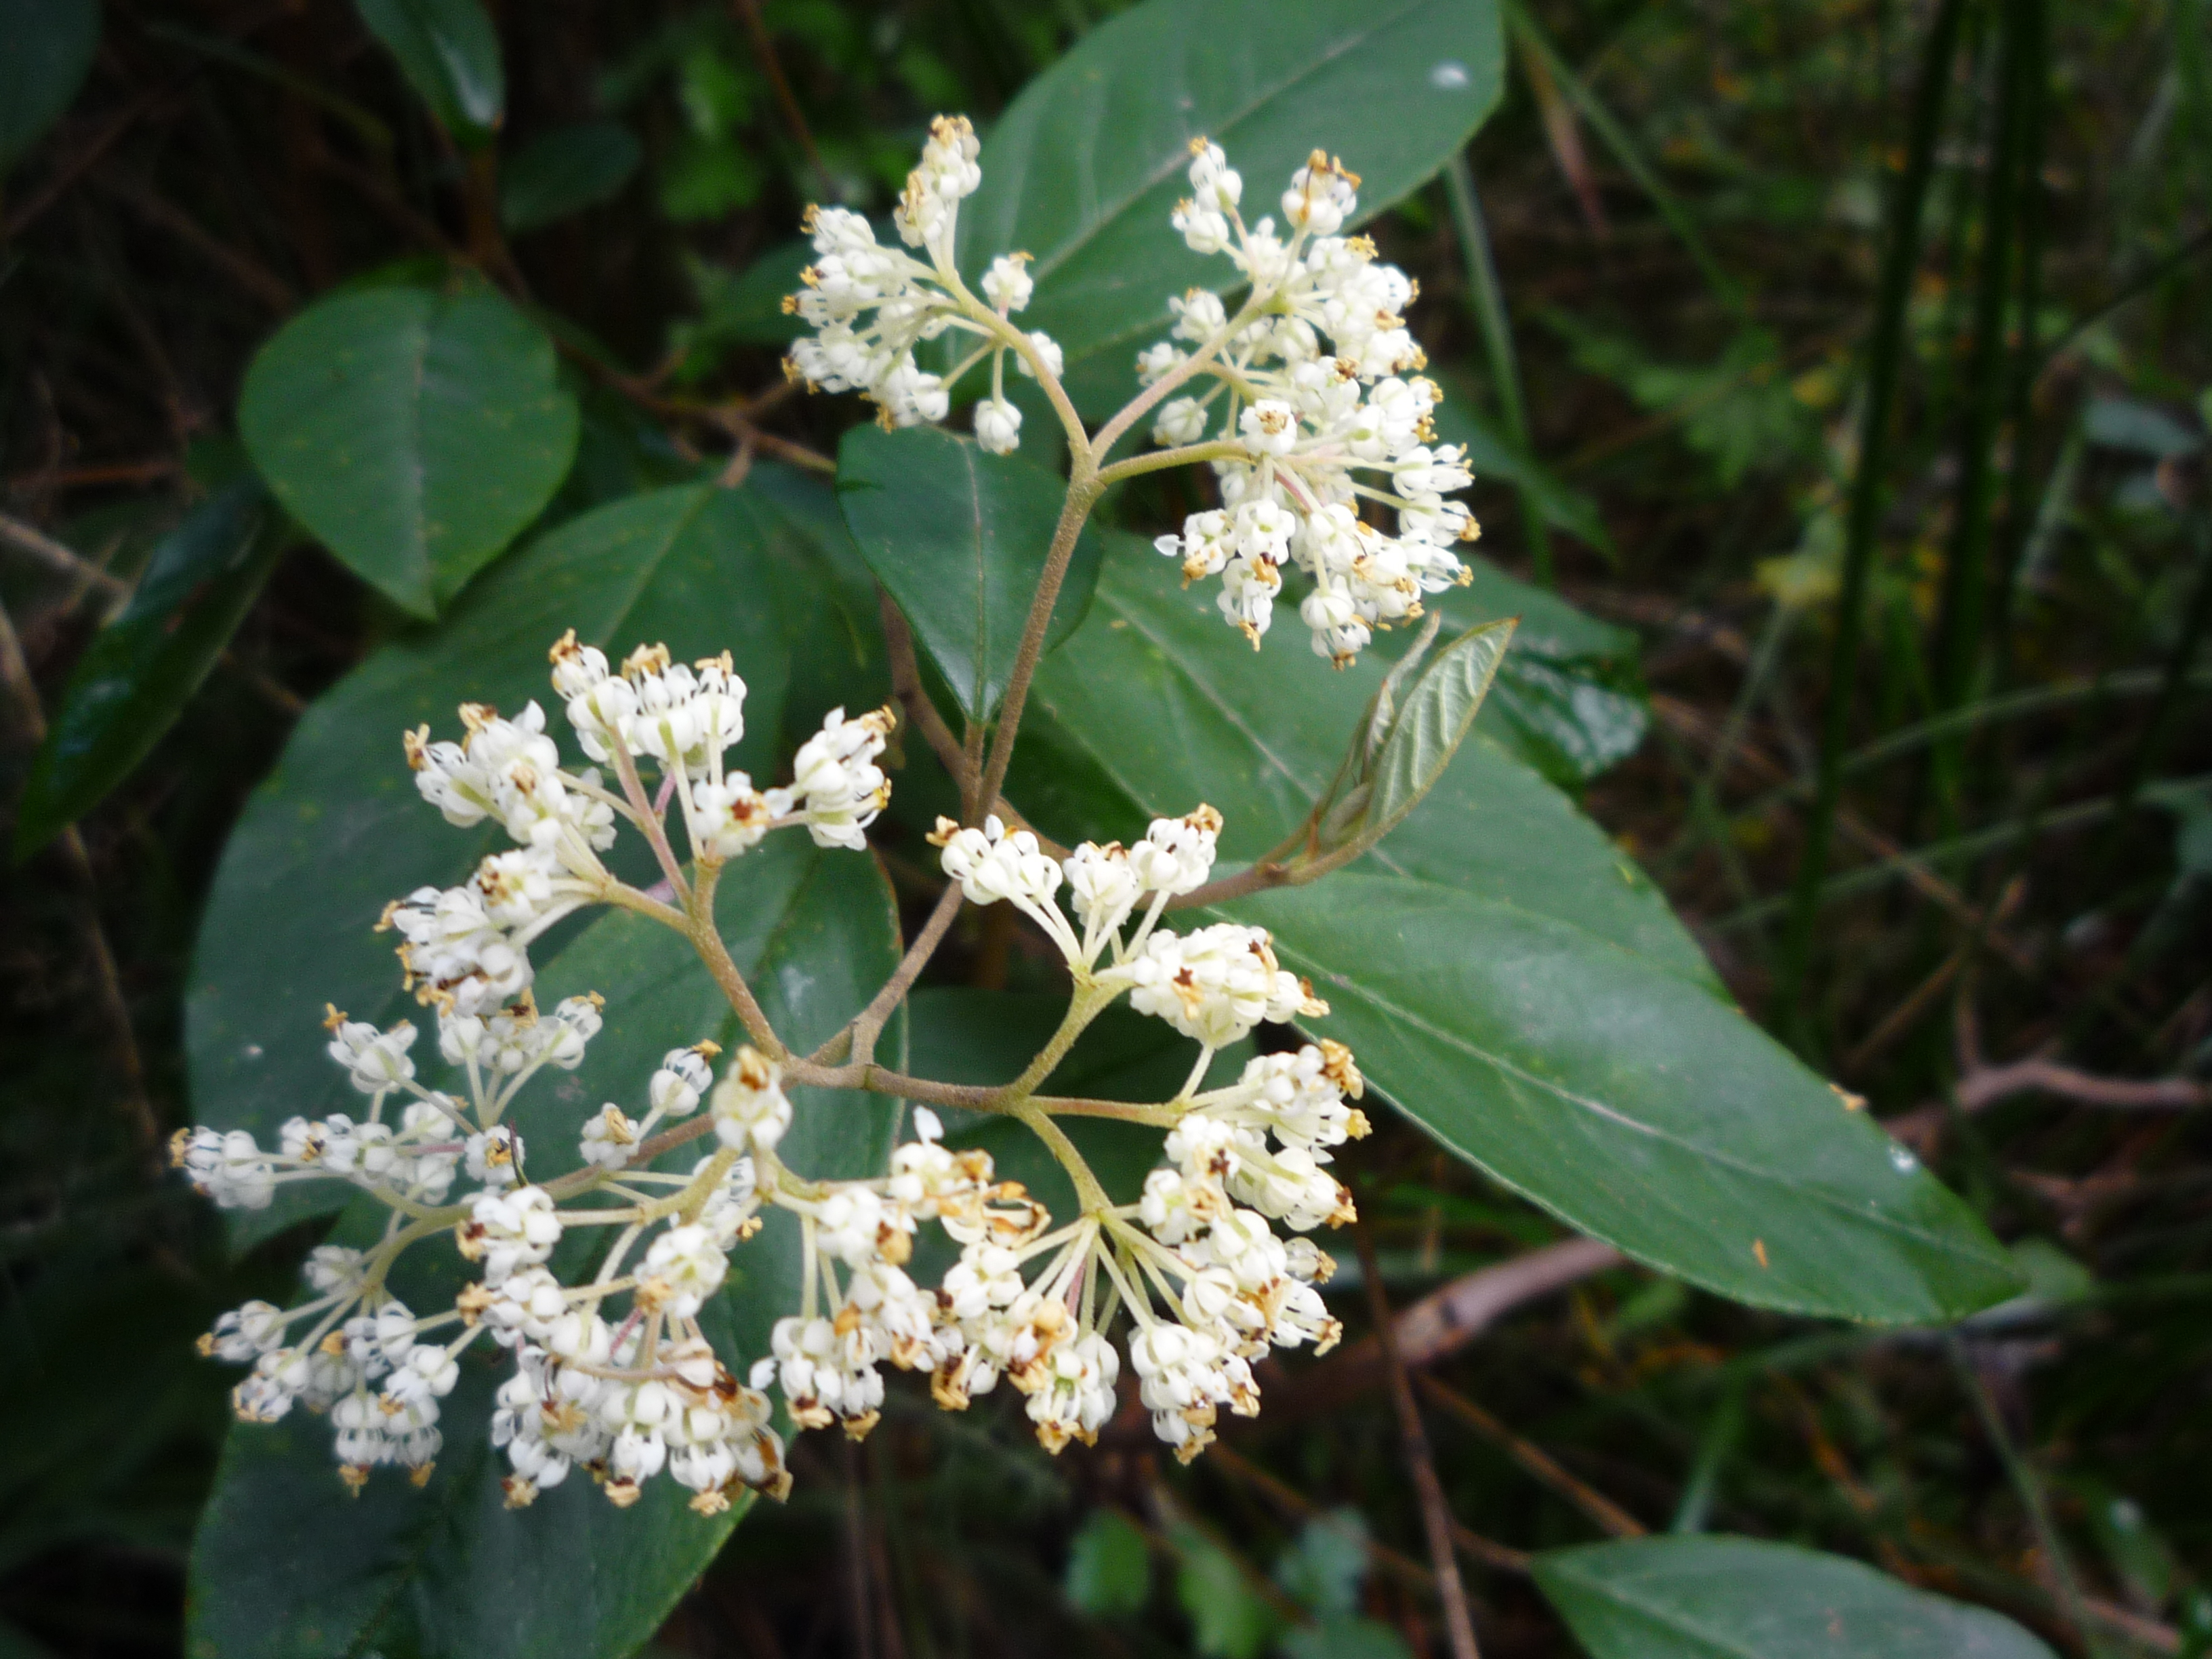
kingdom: Plantae
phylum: Tracheophyta
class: Magnoliopsida
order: Rosales
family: Rhamnaceae
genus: Pomaderris
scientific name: Pomaderris hamiltonii
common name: Pale-flowered kumarahou
